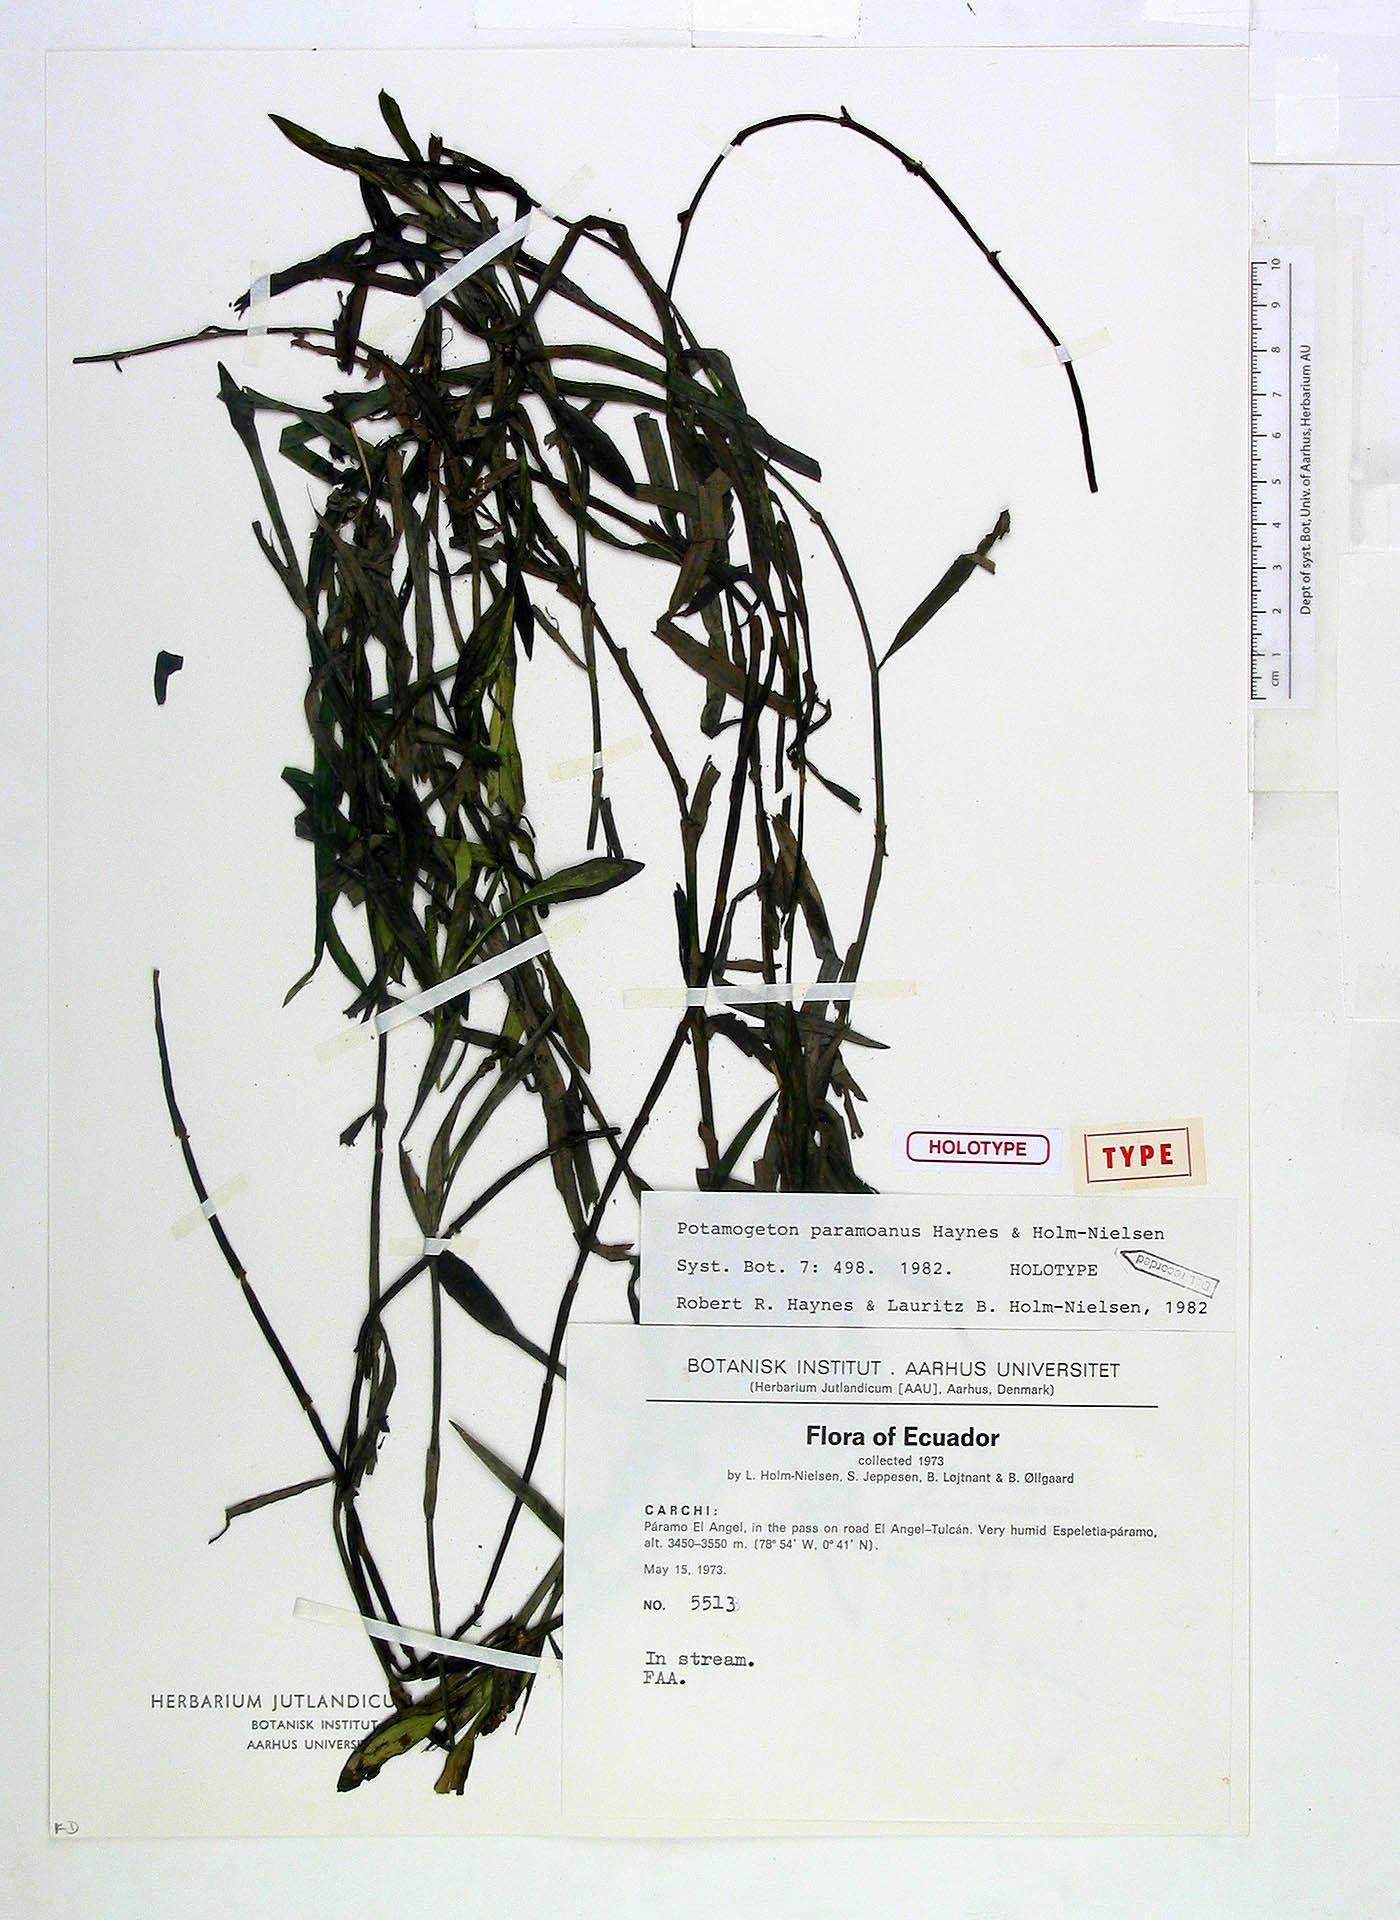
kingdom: Plantae
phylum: Tracheophyta
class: Liliopsida
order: Alismatales
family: Potamogetonaceae
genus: Potamogeton
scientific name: Potamogeton paramoanus
